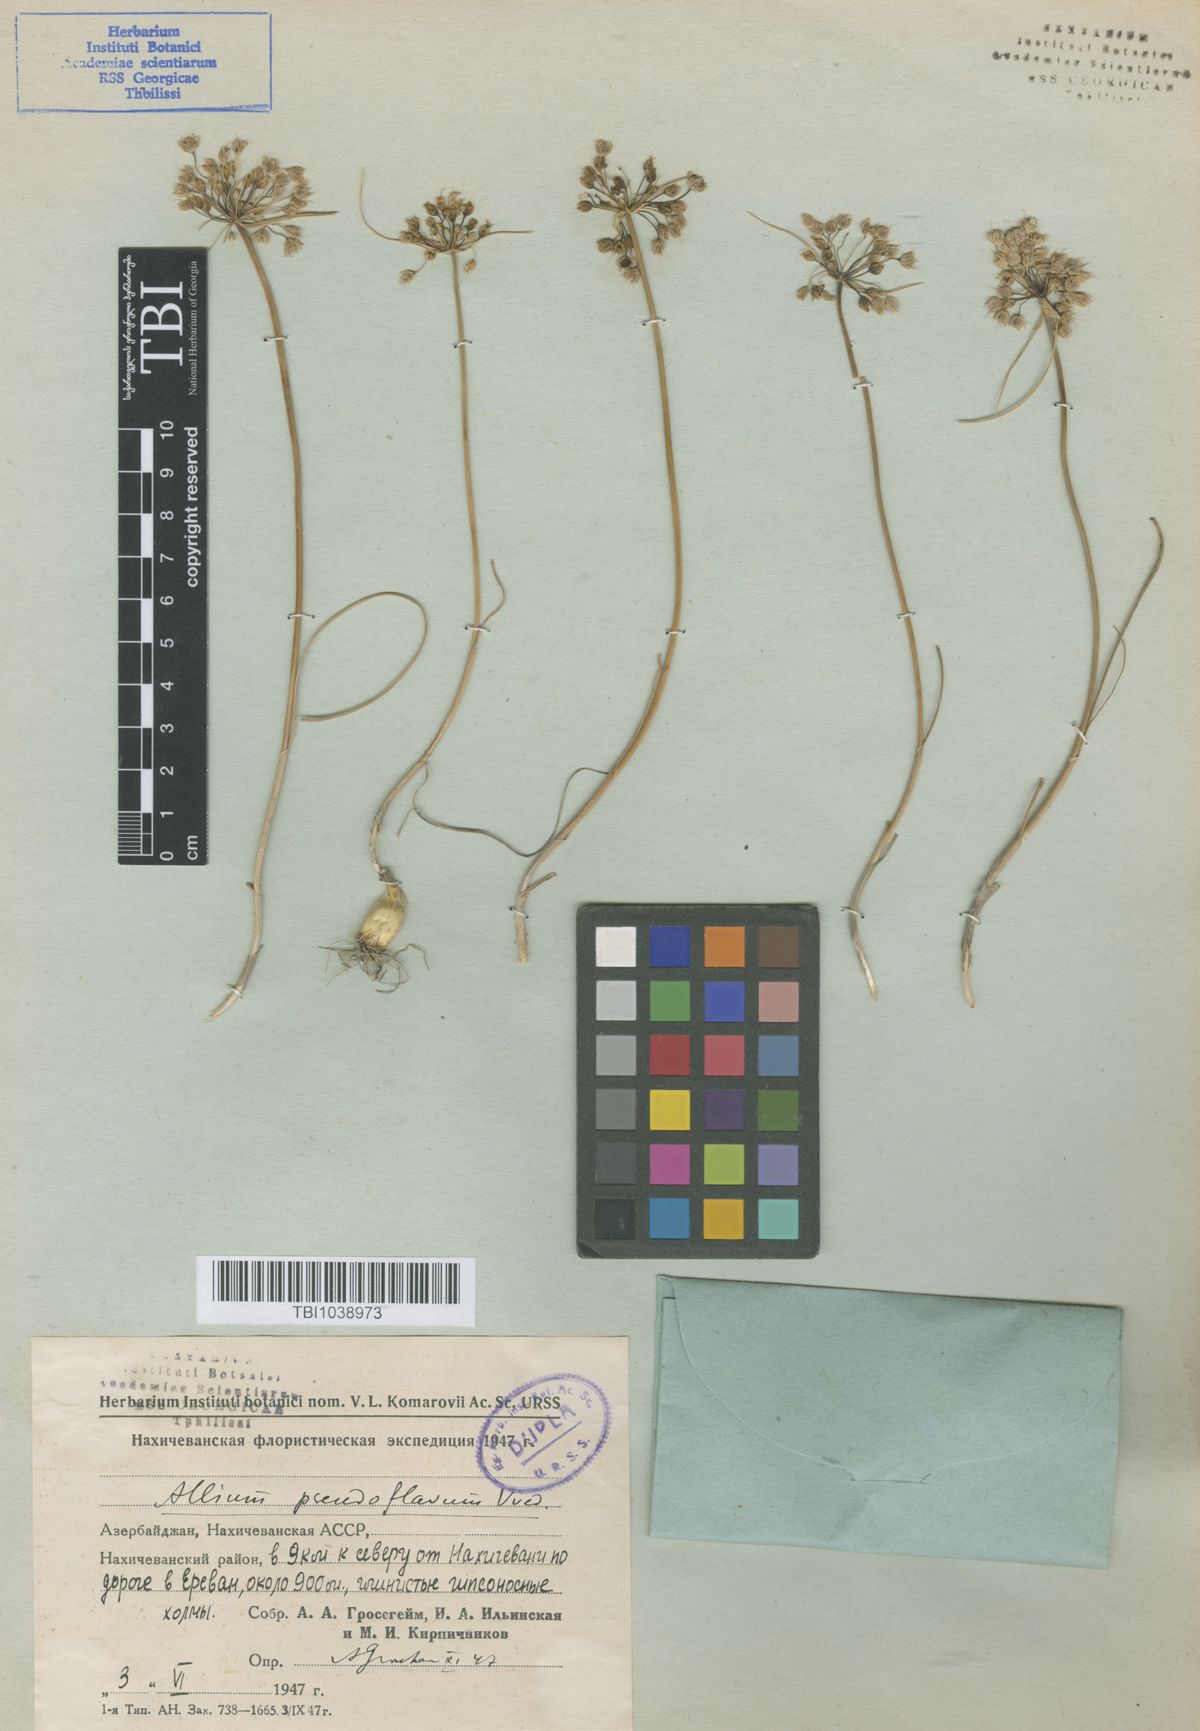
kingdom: Plantae
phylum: Tracheophyta
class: Liliopsida
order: Asparagales
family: Amaryllidaceae
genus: Allium
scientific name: Allium pseudoflavum
